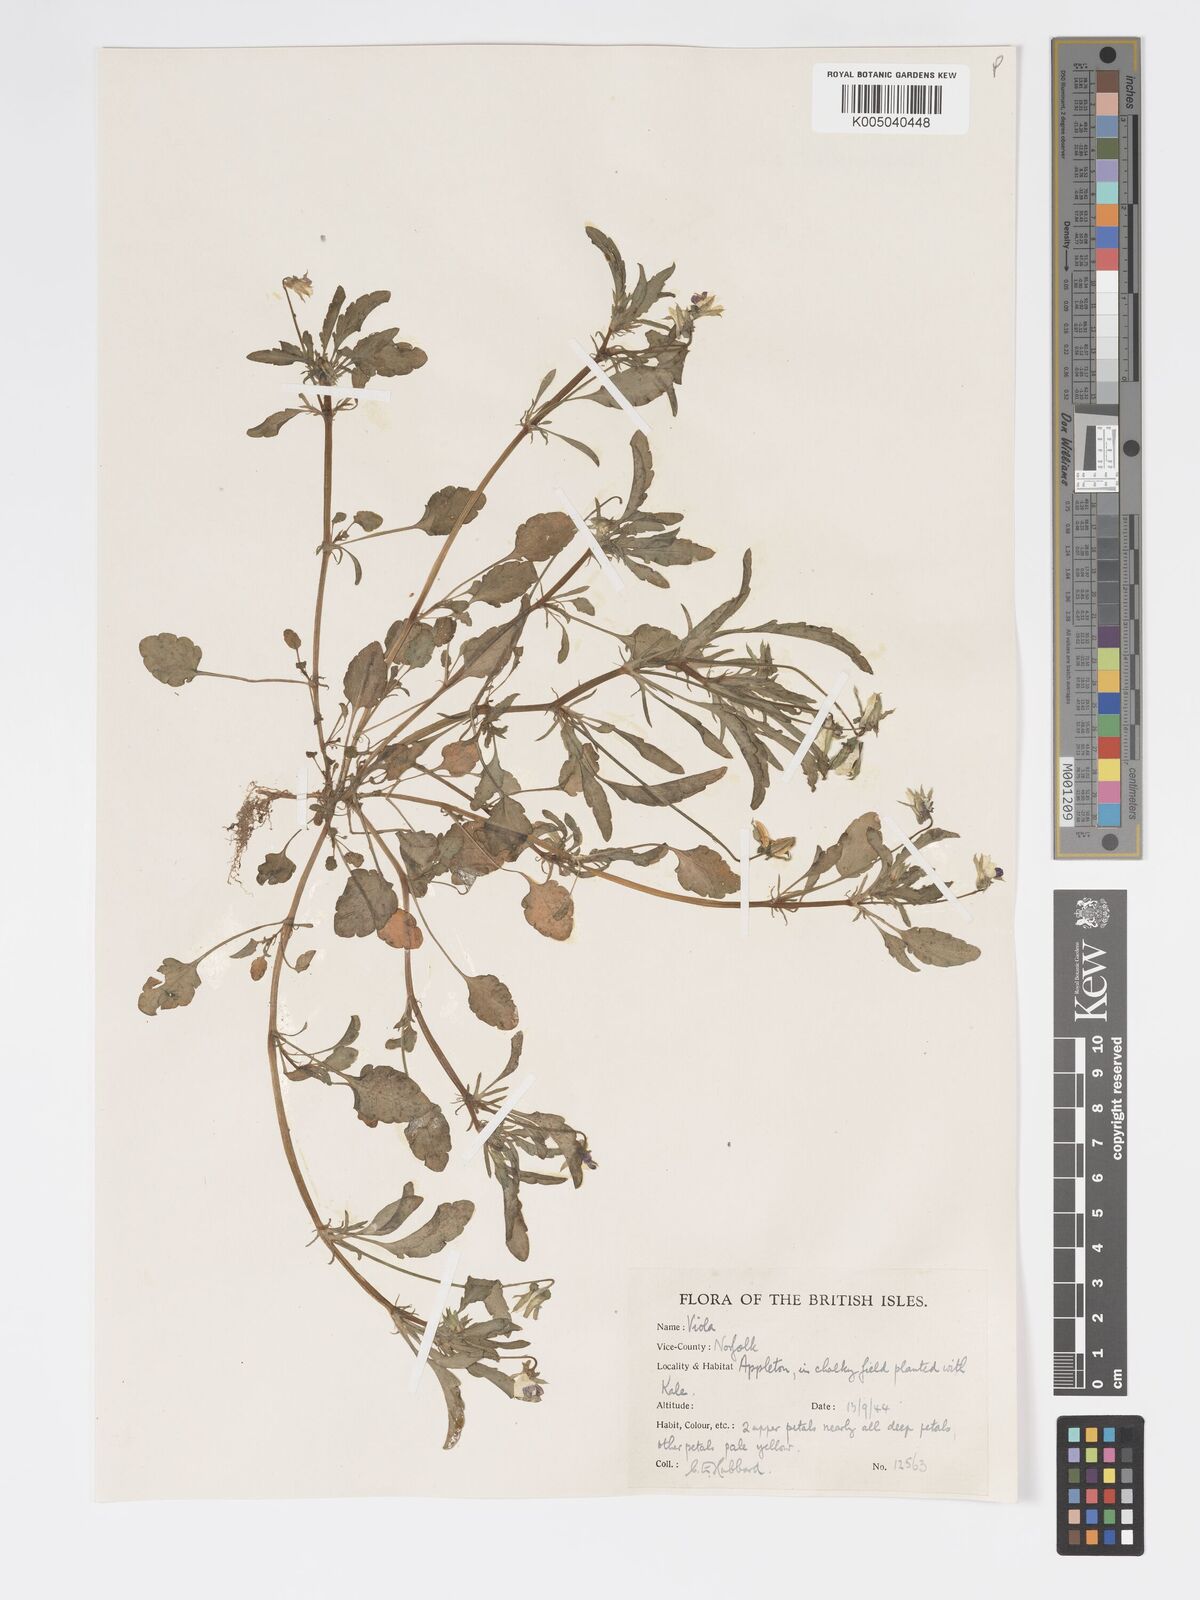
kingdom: Plantae
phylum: Tracheophyta
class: Magnoliopsida
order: Malpighiales
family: Violaceae
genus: Viola
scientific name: Viola arvensis
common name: Field pansy
